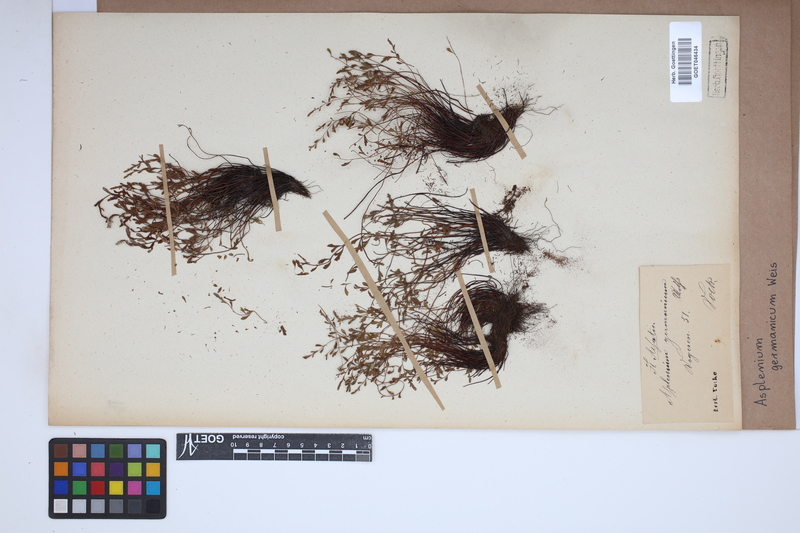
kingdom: Plantae
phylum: Tracheophyta
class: Polypodiopsida
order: Polypodiales
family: Aspleniaceae
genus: Asplenium
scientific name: Asplenium
